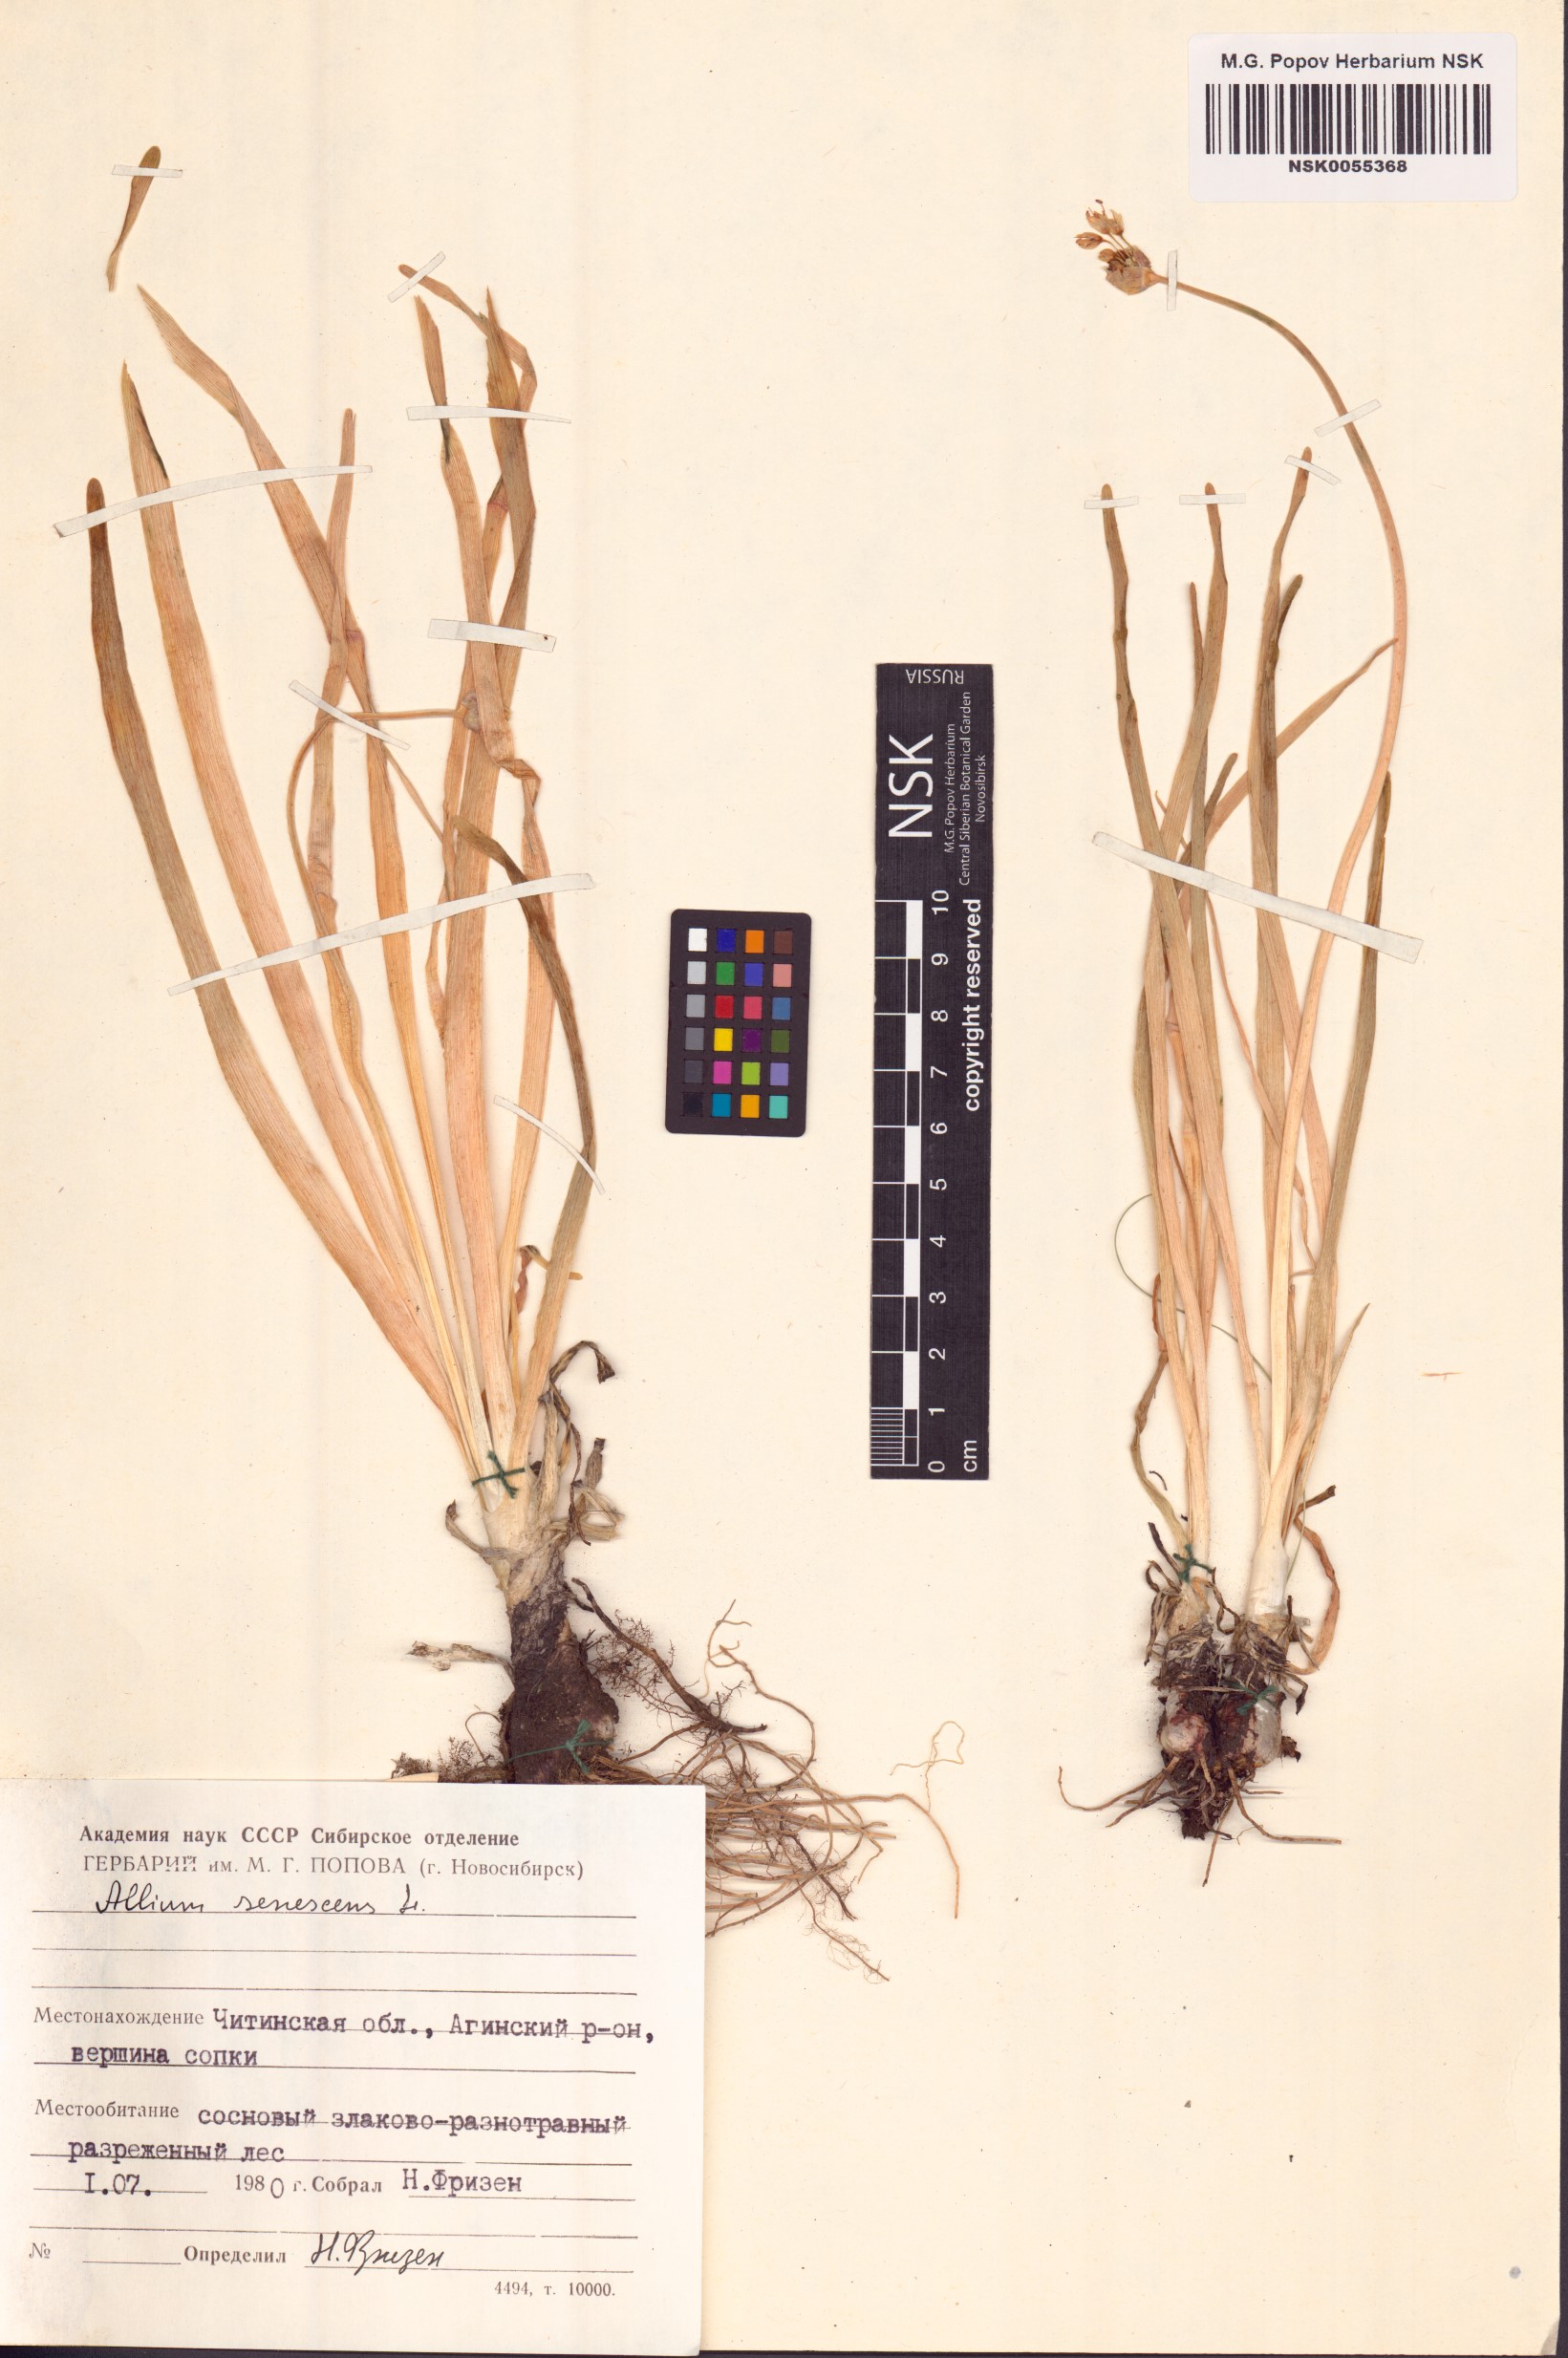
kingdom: Plantae
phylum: Tracheophyta
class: Liliopsida
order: Asparagales
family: Amaryllidaceae
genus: Allium
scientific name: Allium senescens
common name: German garlic
